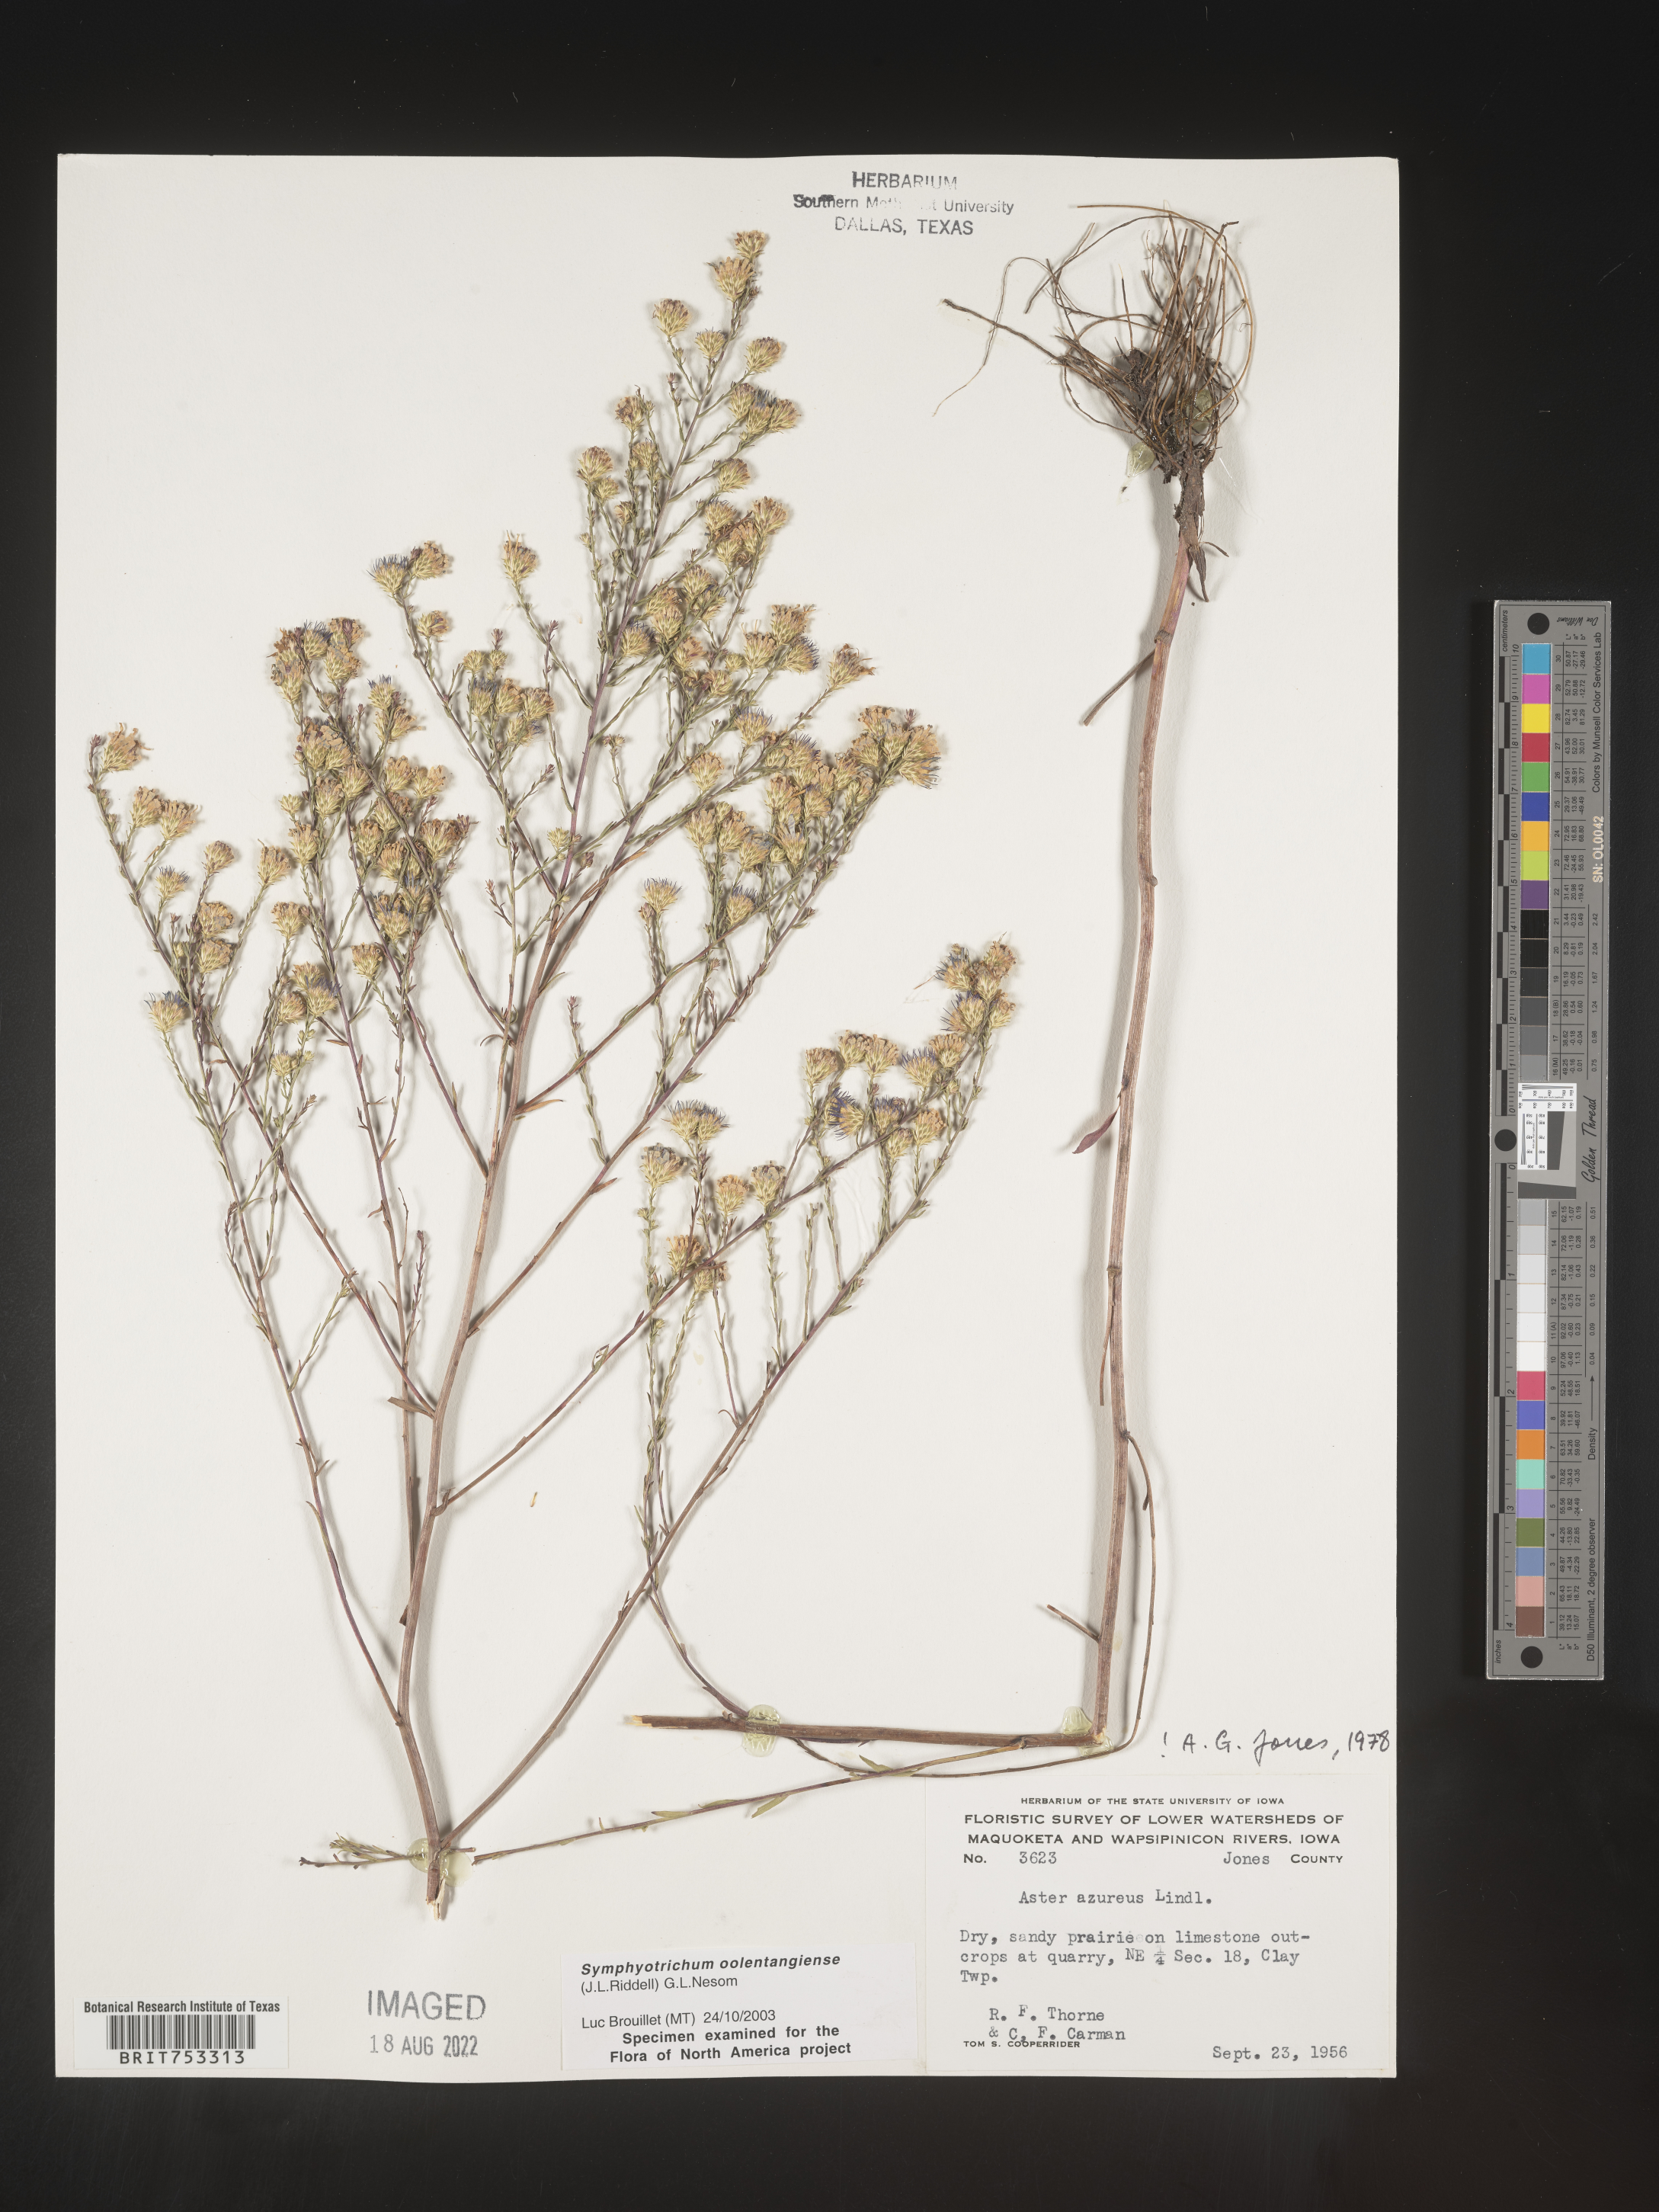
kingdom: Plantae
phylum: Tracheophyta
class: Magnoliopsida
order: Asterales
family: Asteraceae
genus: Symphyotrichum
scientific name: Symphyotrichum oolentangiense
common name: Azure aster
